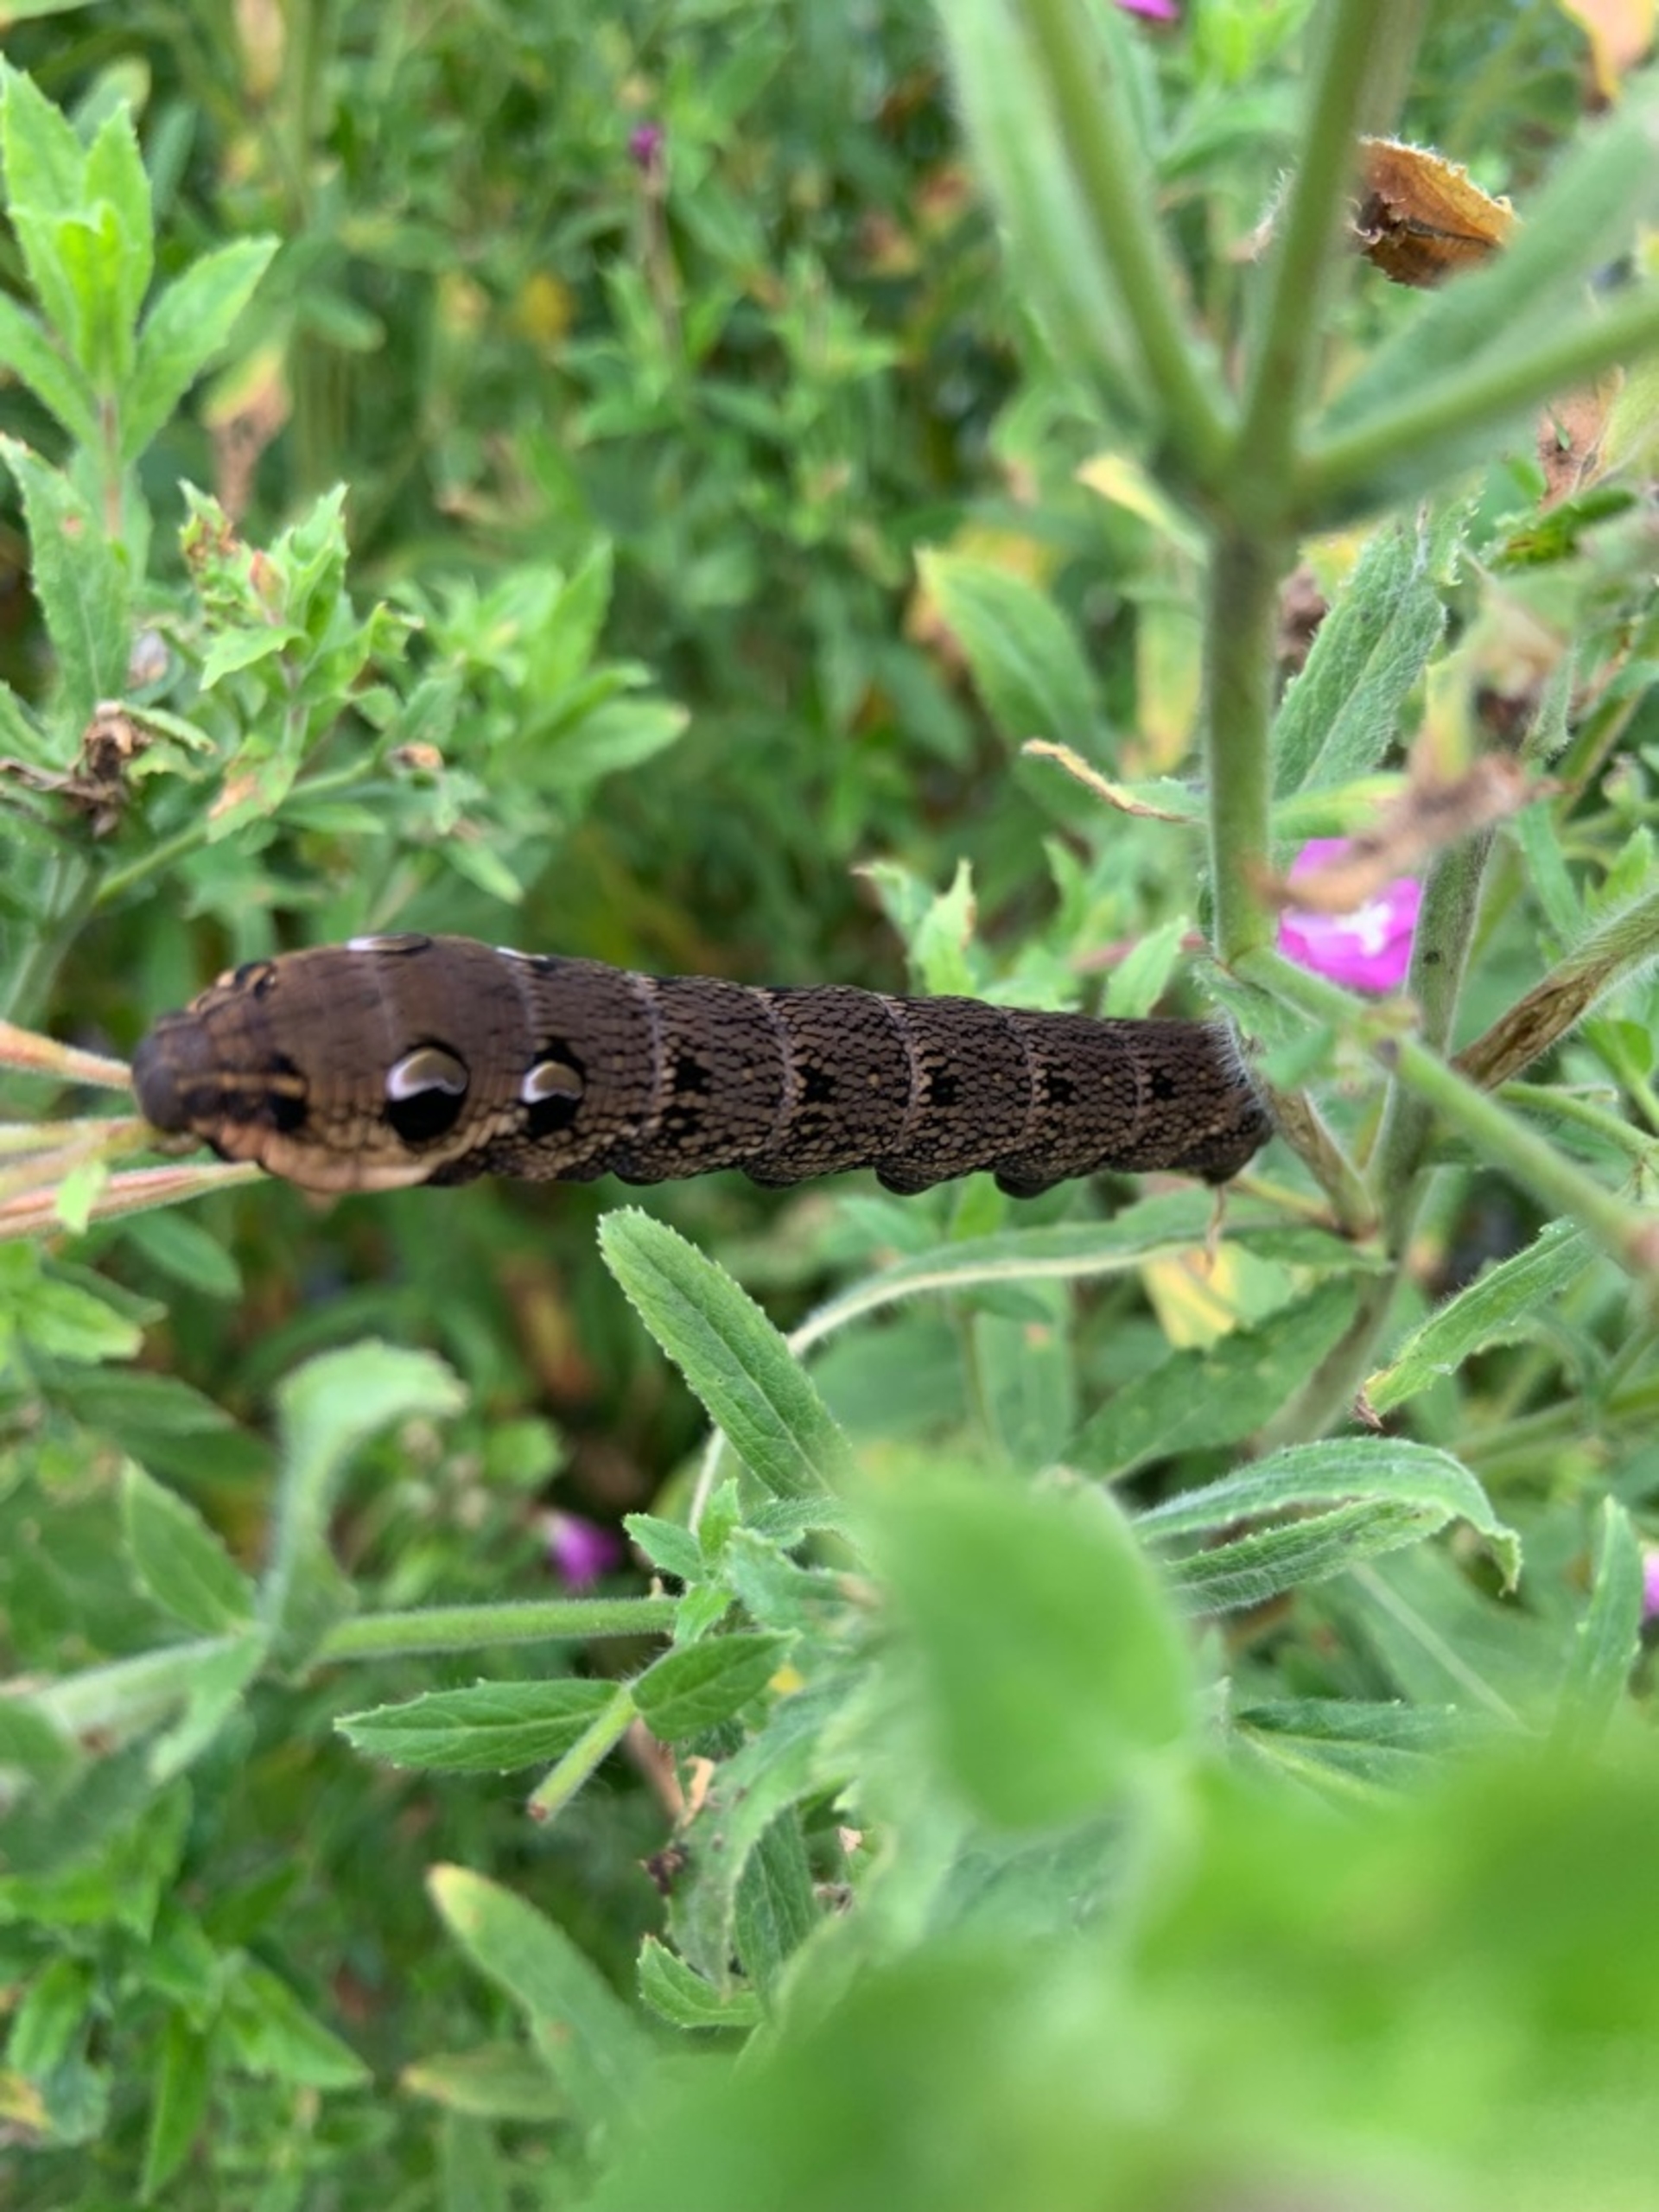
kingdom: Animalia
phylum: Arthropoda
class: Insecta
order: Lepidoptera
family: Sphingidae
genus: Deilephila
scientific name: Deilephila elpenor
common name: Dueurtsværmer
